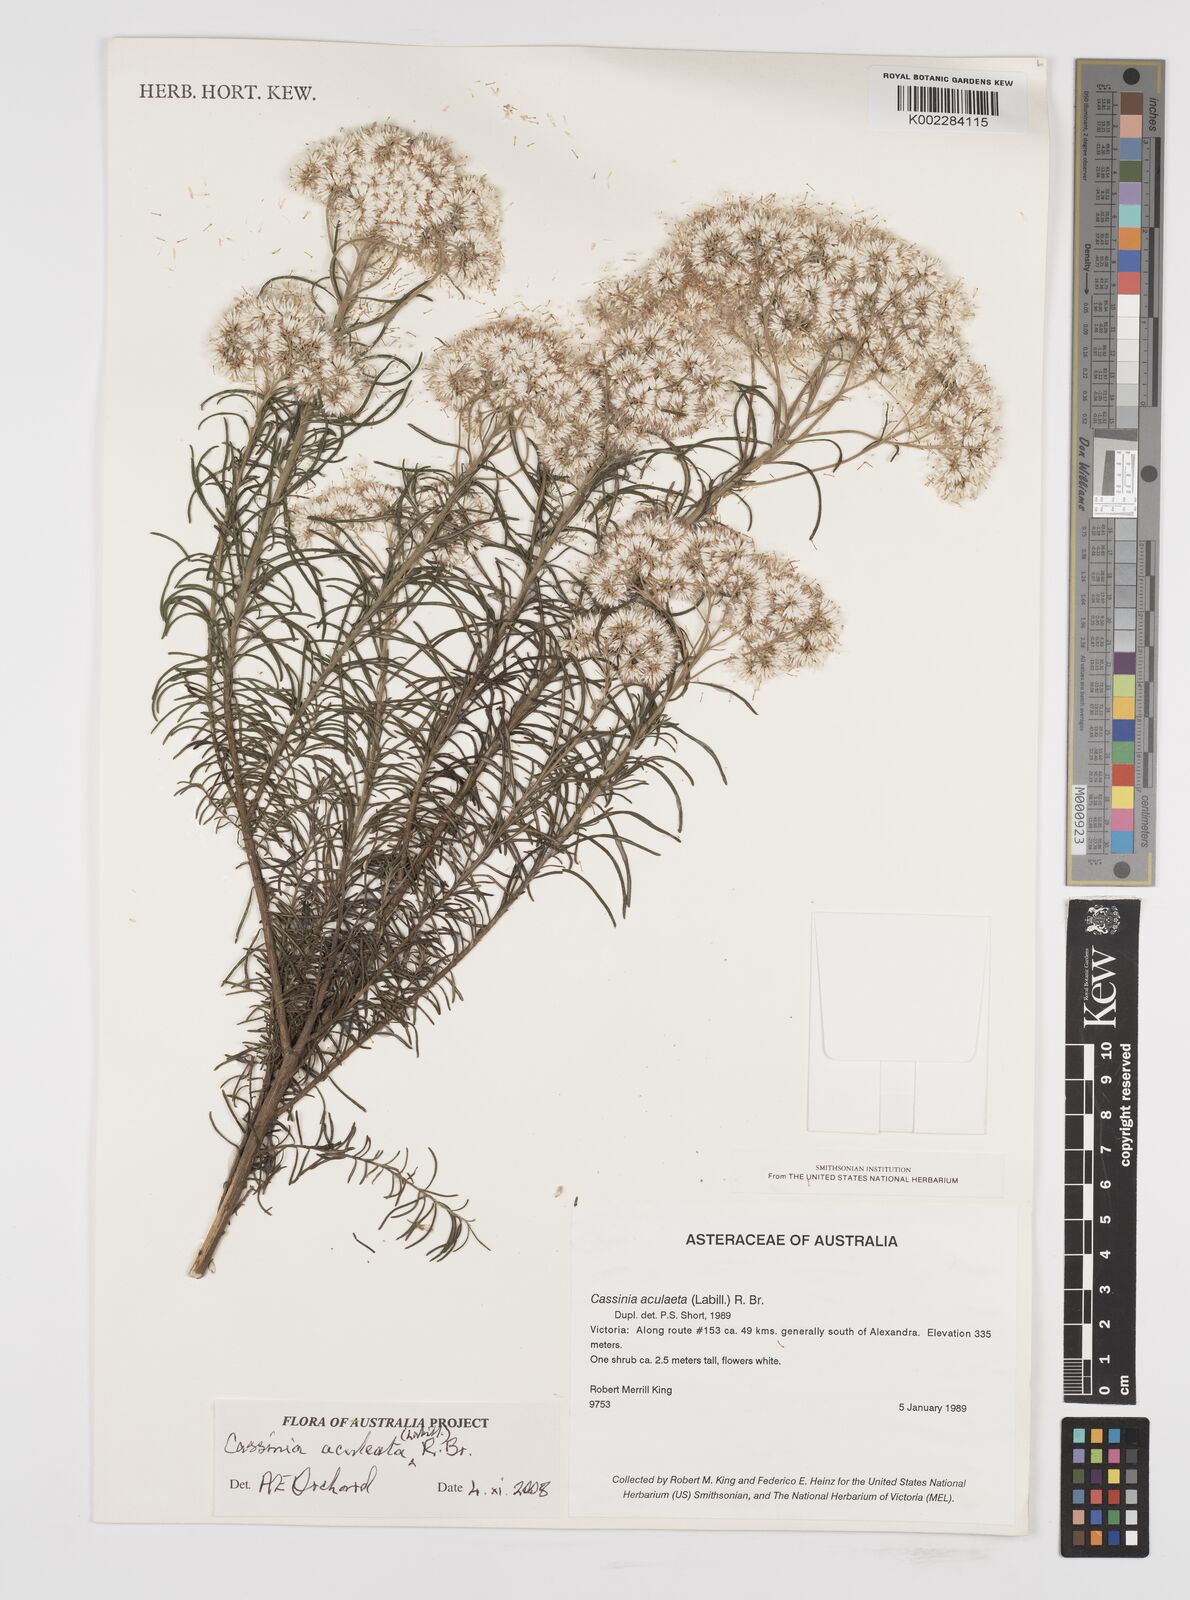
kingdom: Plantae
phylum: Tracheophyta
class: Magnoliopsida
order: Asterales
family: Asteraceae
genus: Cassinia
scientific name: Cassinia aculeata
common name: Australian tauhinu
